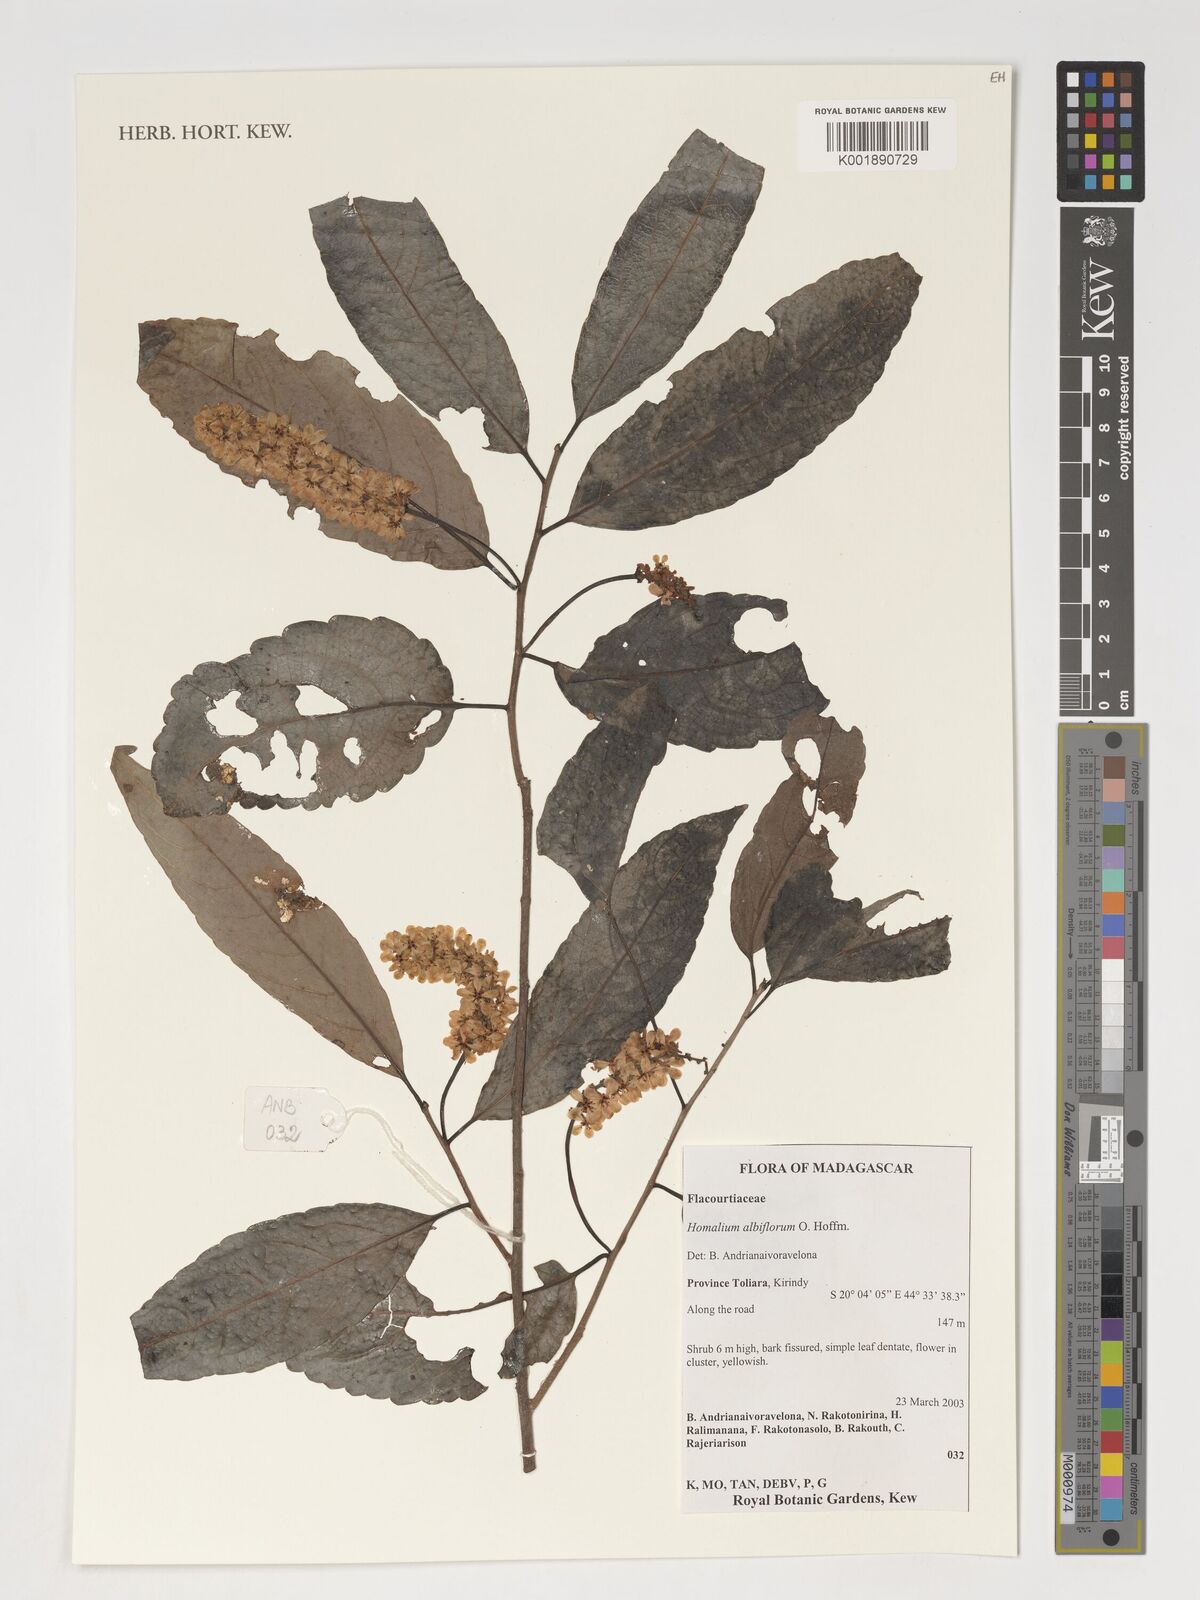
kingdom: Plantae
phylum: Tracheophyta
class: Magnoliopsida
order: Malpighiales
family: Salicaceae
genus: Homalium
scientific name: Homalium albiflorum
